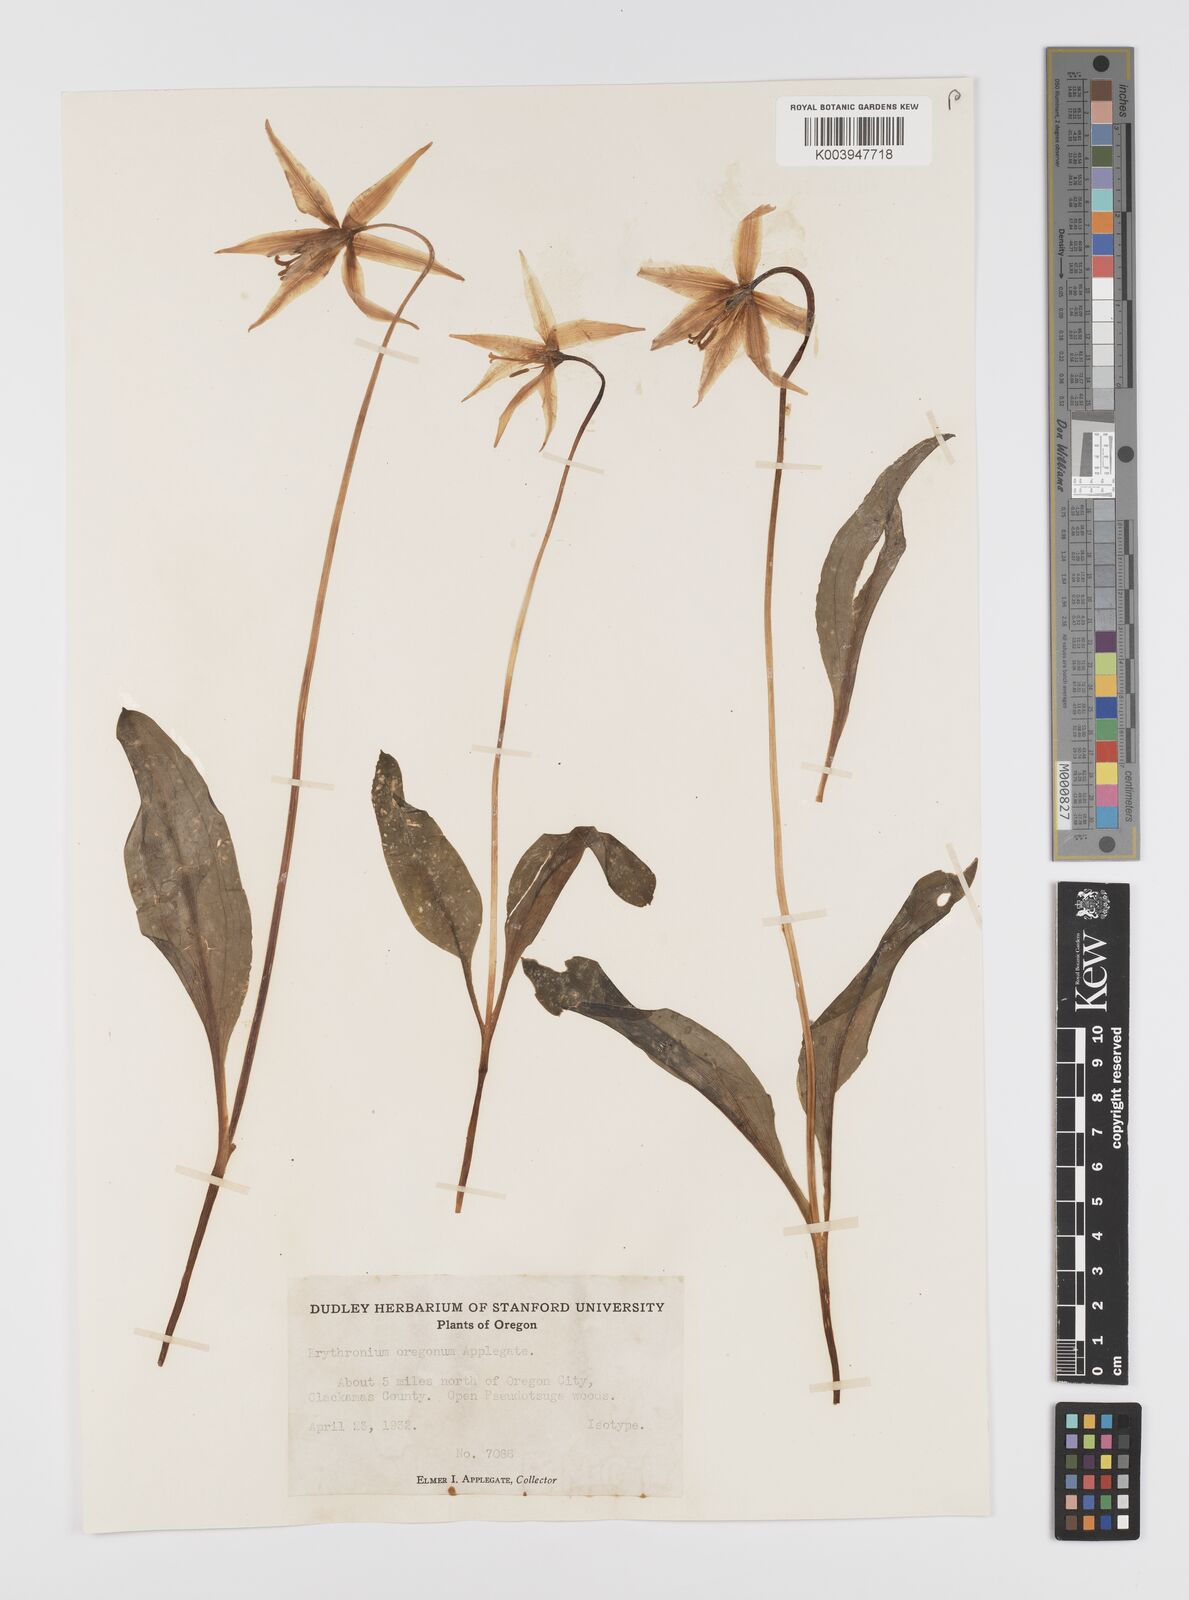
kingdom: Plantae
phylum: Tracheophyta
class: Liliopsida
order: Liliales
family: Liliaceae
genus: Erythronium
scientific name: Erythronium oregonum
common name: Giant adder's-tongue
